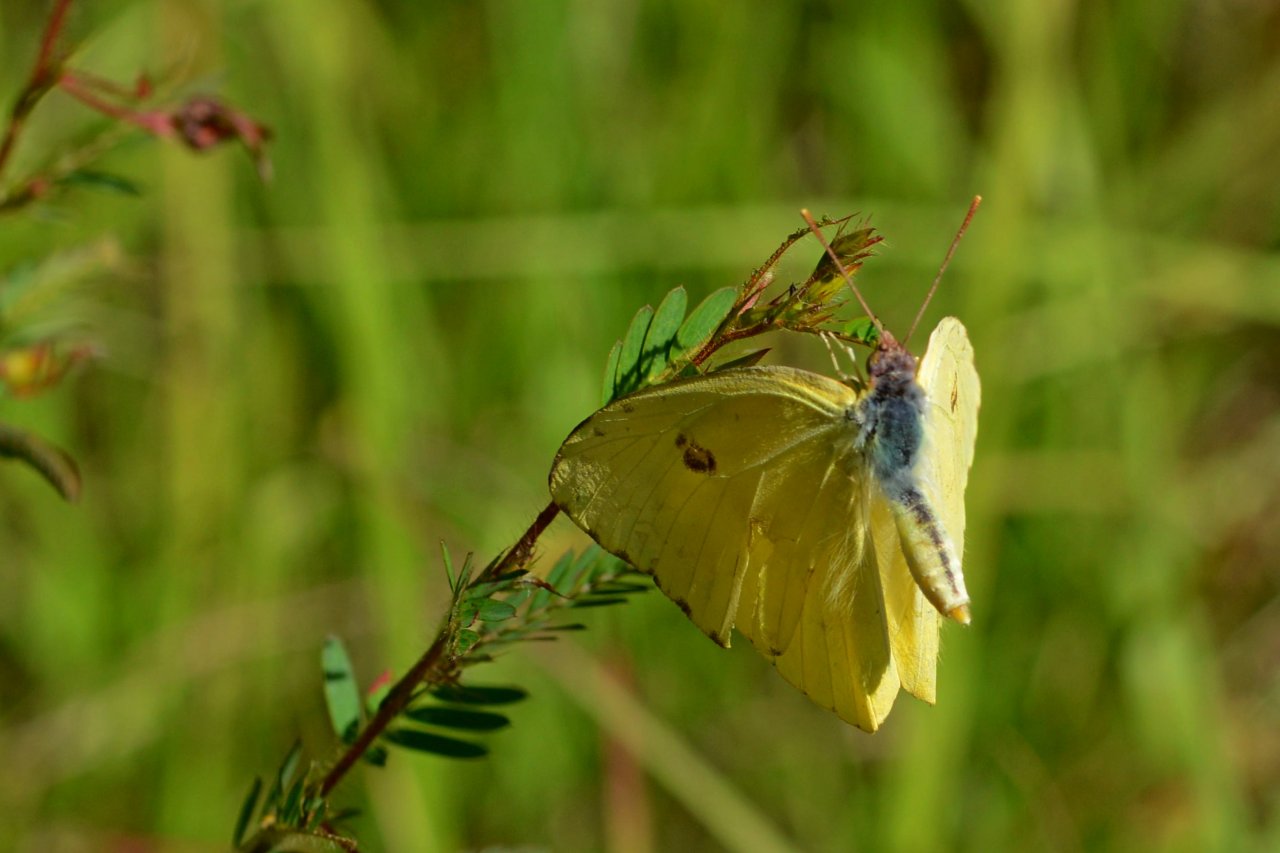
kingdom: Animalia
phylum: Arthropoda
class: Insecta
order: Lepidoptera
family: Pieridae
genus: Phoebis
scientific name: Phoebis sennae
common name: Cloudless Sulphur
